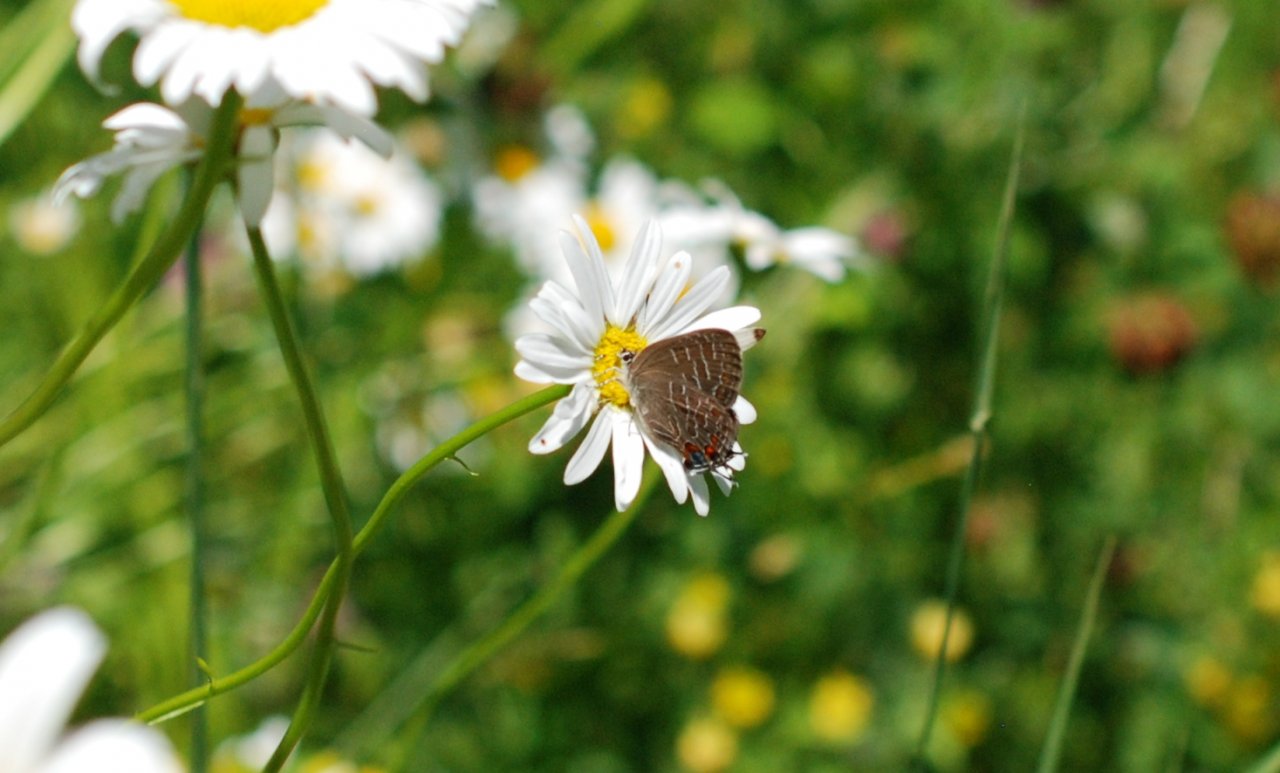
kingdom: Animalia
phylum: Arthropoda
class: Insecta
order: Lepidoptera
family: Lycaenidae
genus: Satyrium
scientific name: Satyrium liparops
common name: Striped Hairstreak
